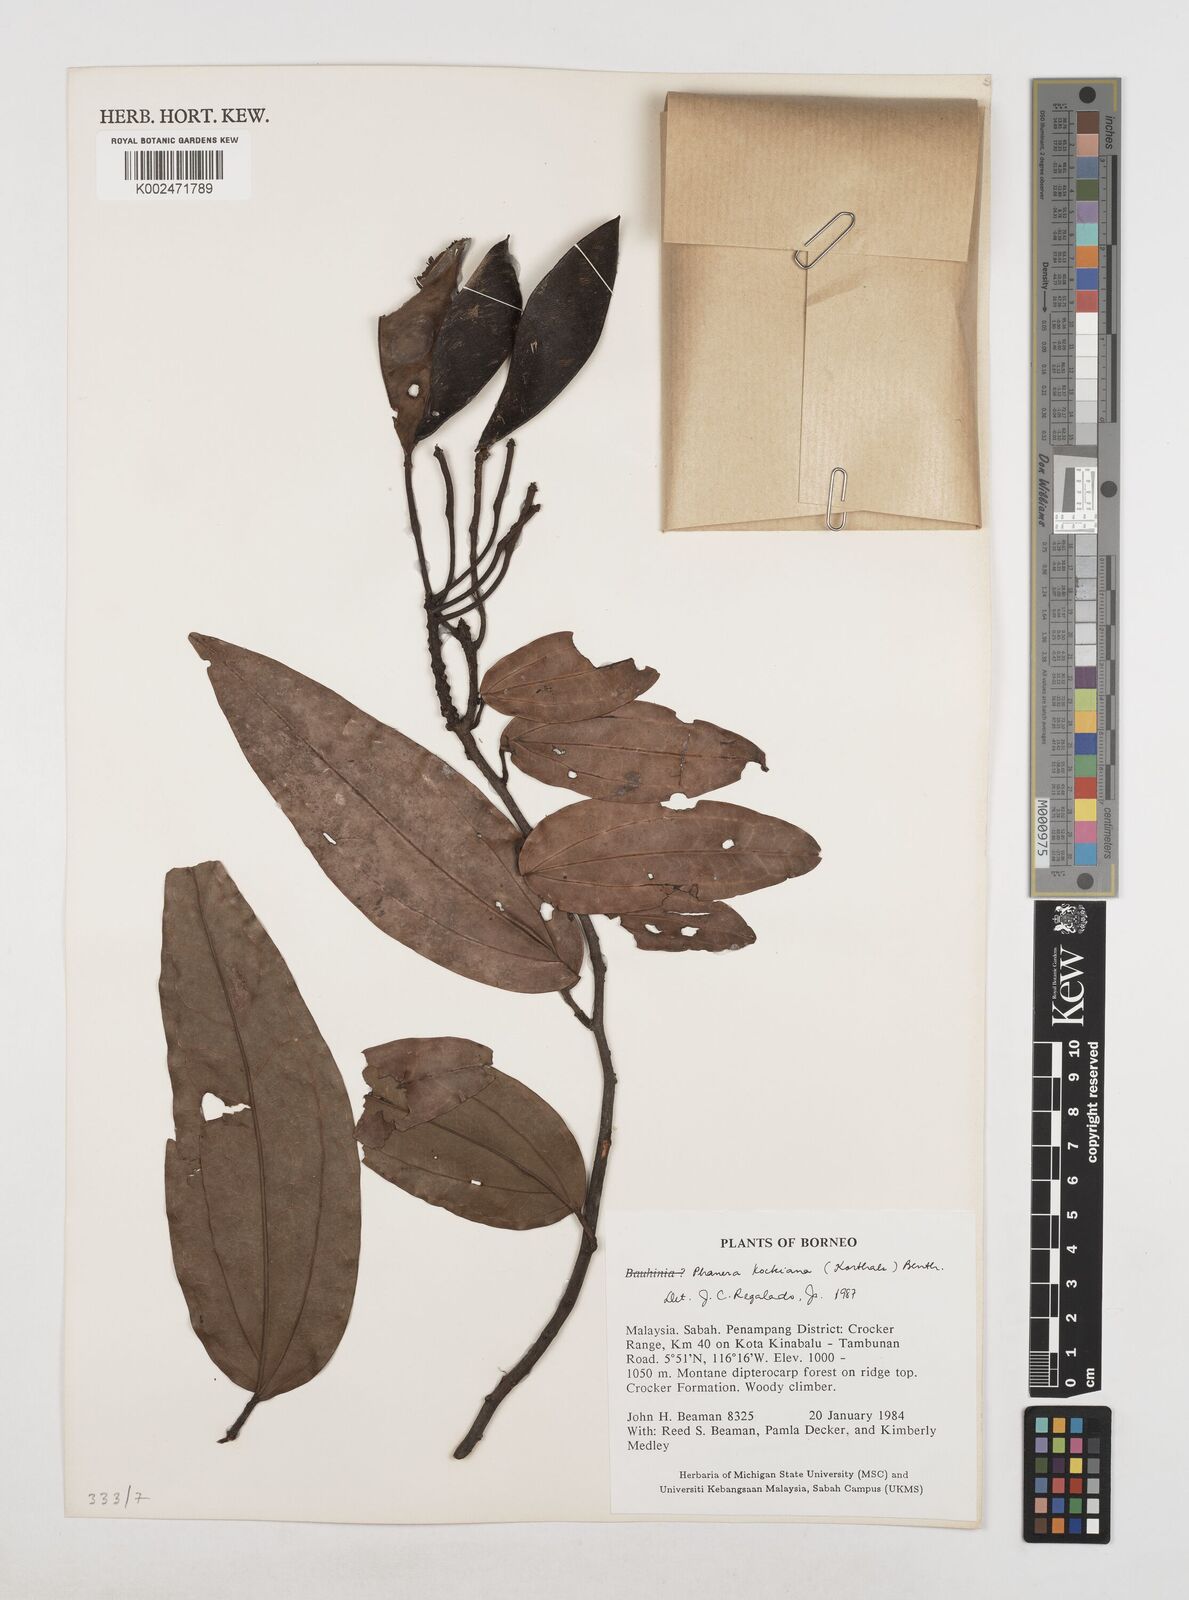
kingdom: Plantae
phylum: Tracheophyta
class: Magnoliopsida
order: Fabales
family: Fabaceae
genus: Phanera
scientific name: Phanera kockiana
